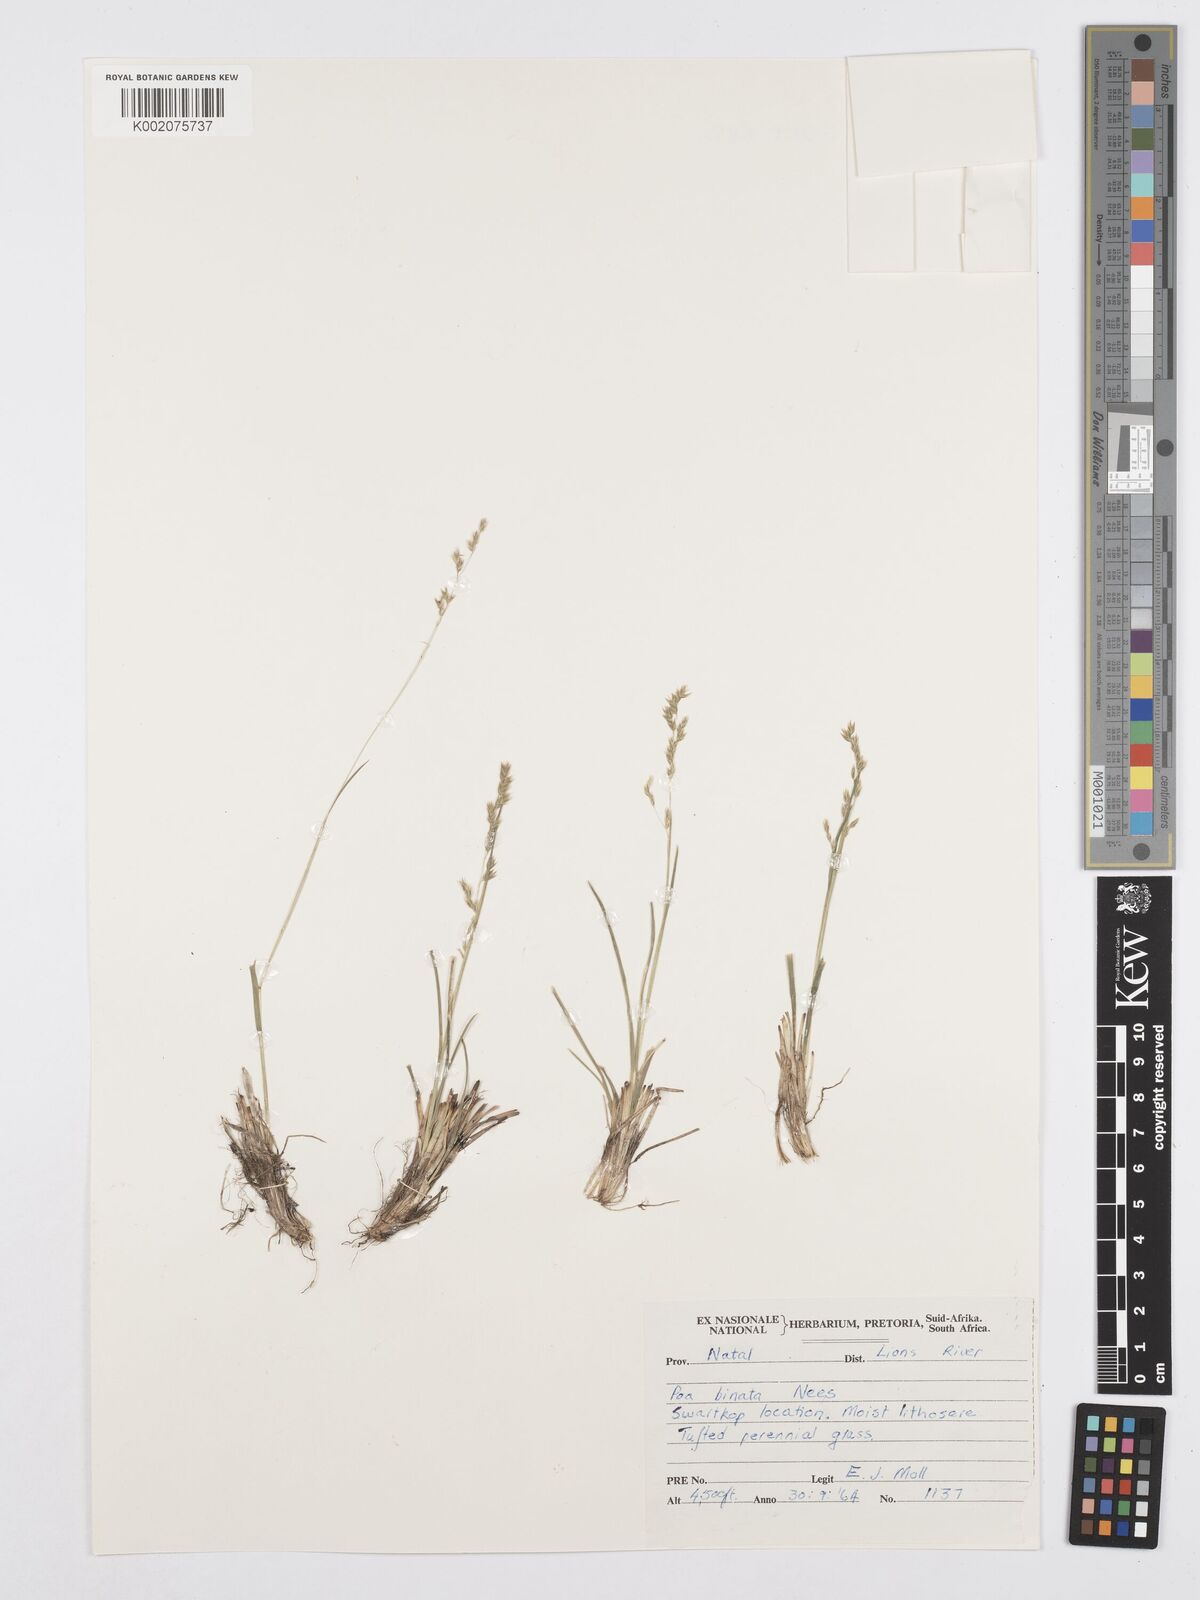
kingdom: Plantae
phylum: Tracheophyta
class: Liliopsida
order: Poales
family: Poaceae
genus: Poa
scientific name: Poa binata
